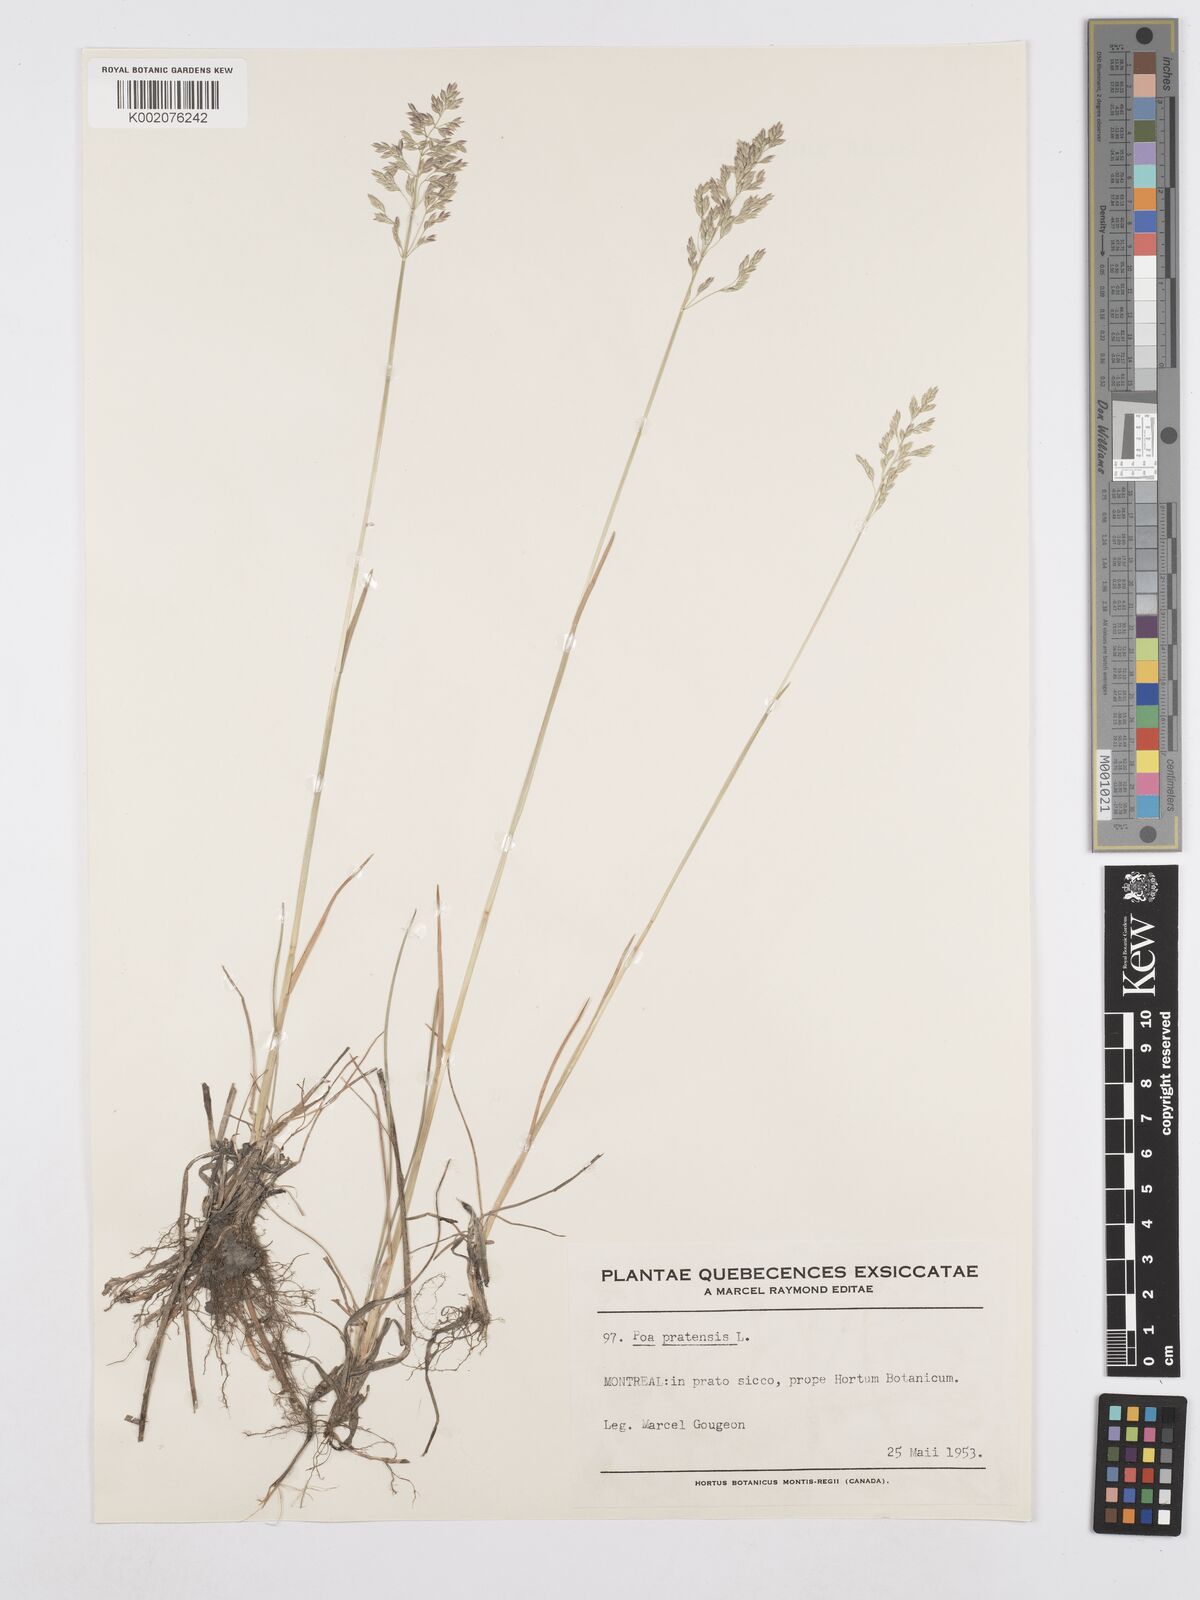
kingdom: Plantae
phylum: Tracheophyta
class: Liliopsida
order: Poales
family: Poaceae
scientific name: Poaceae
